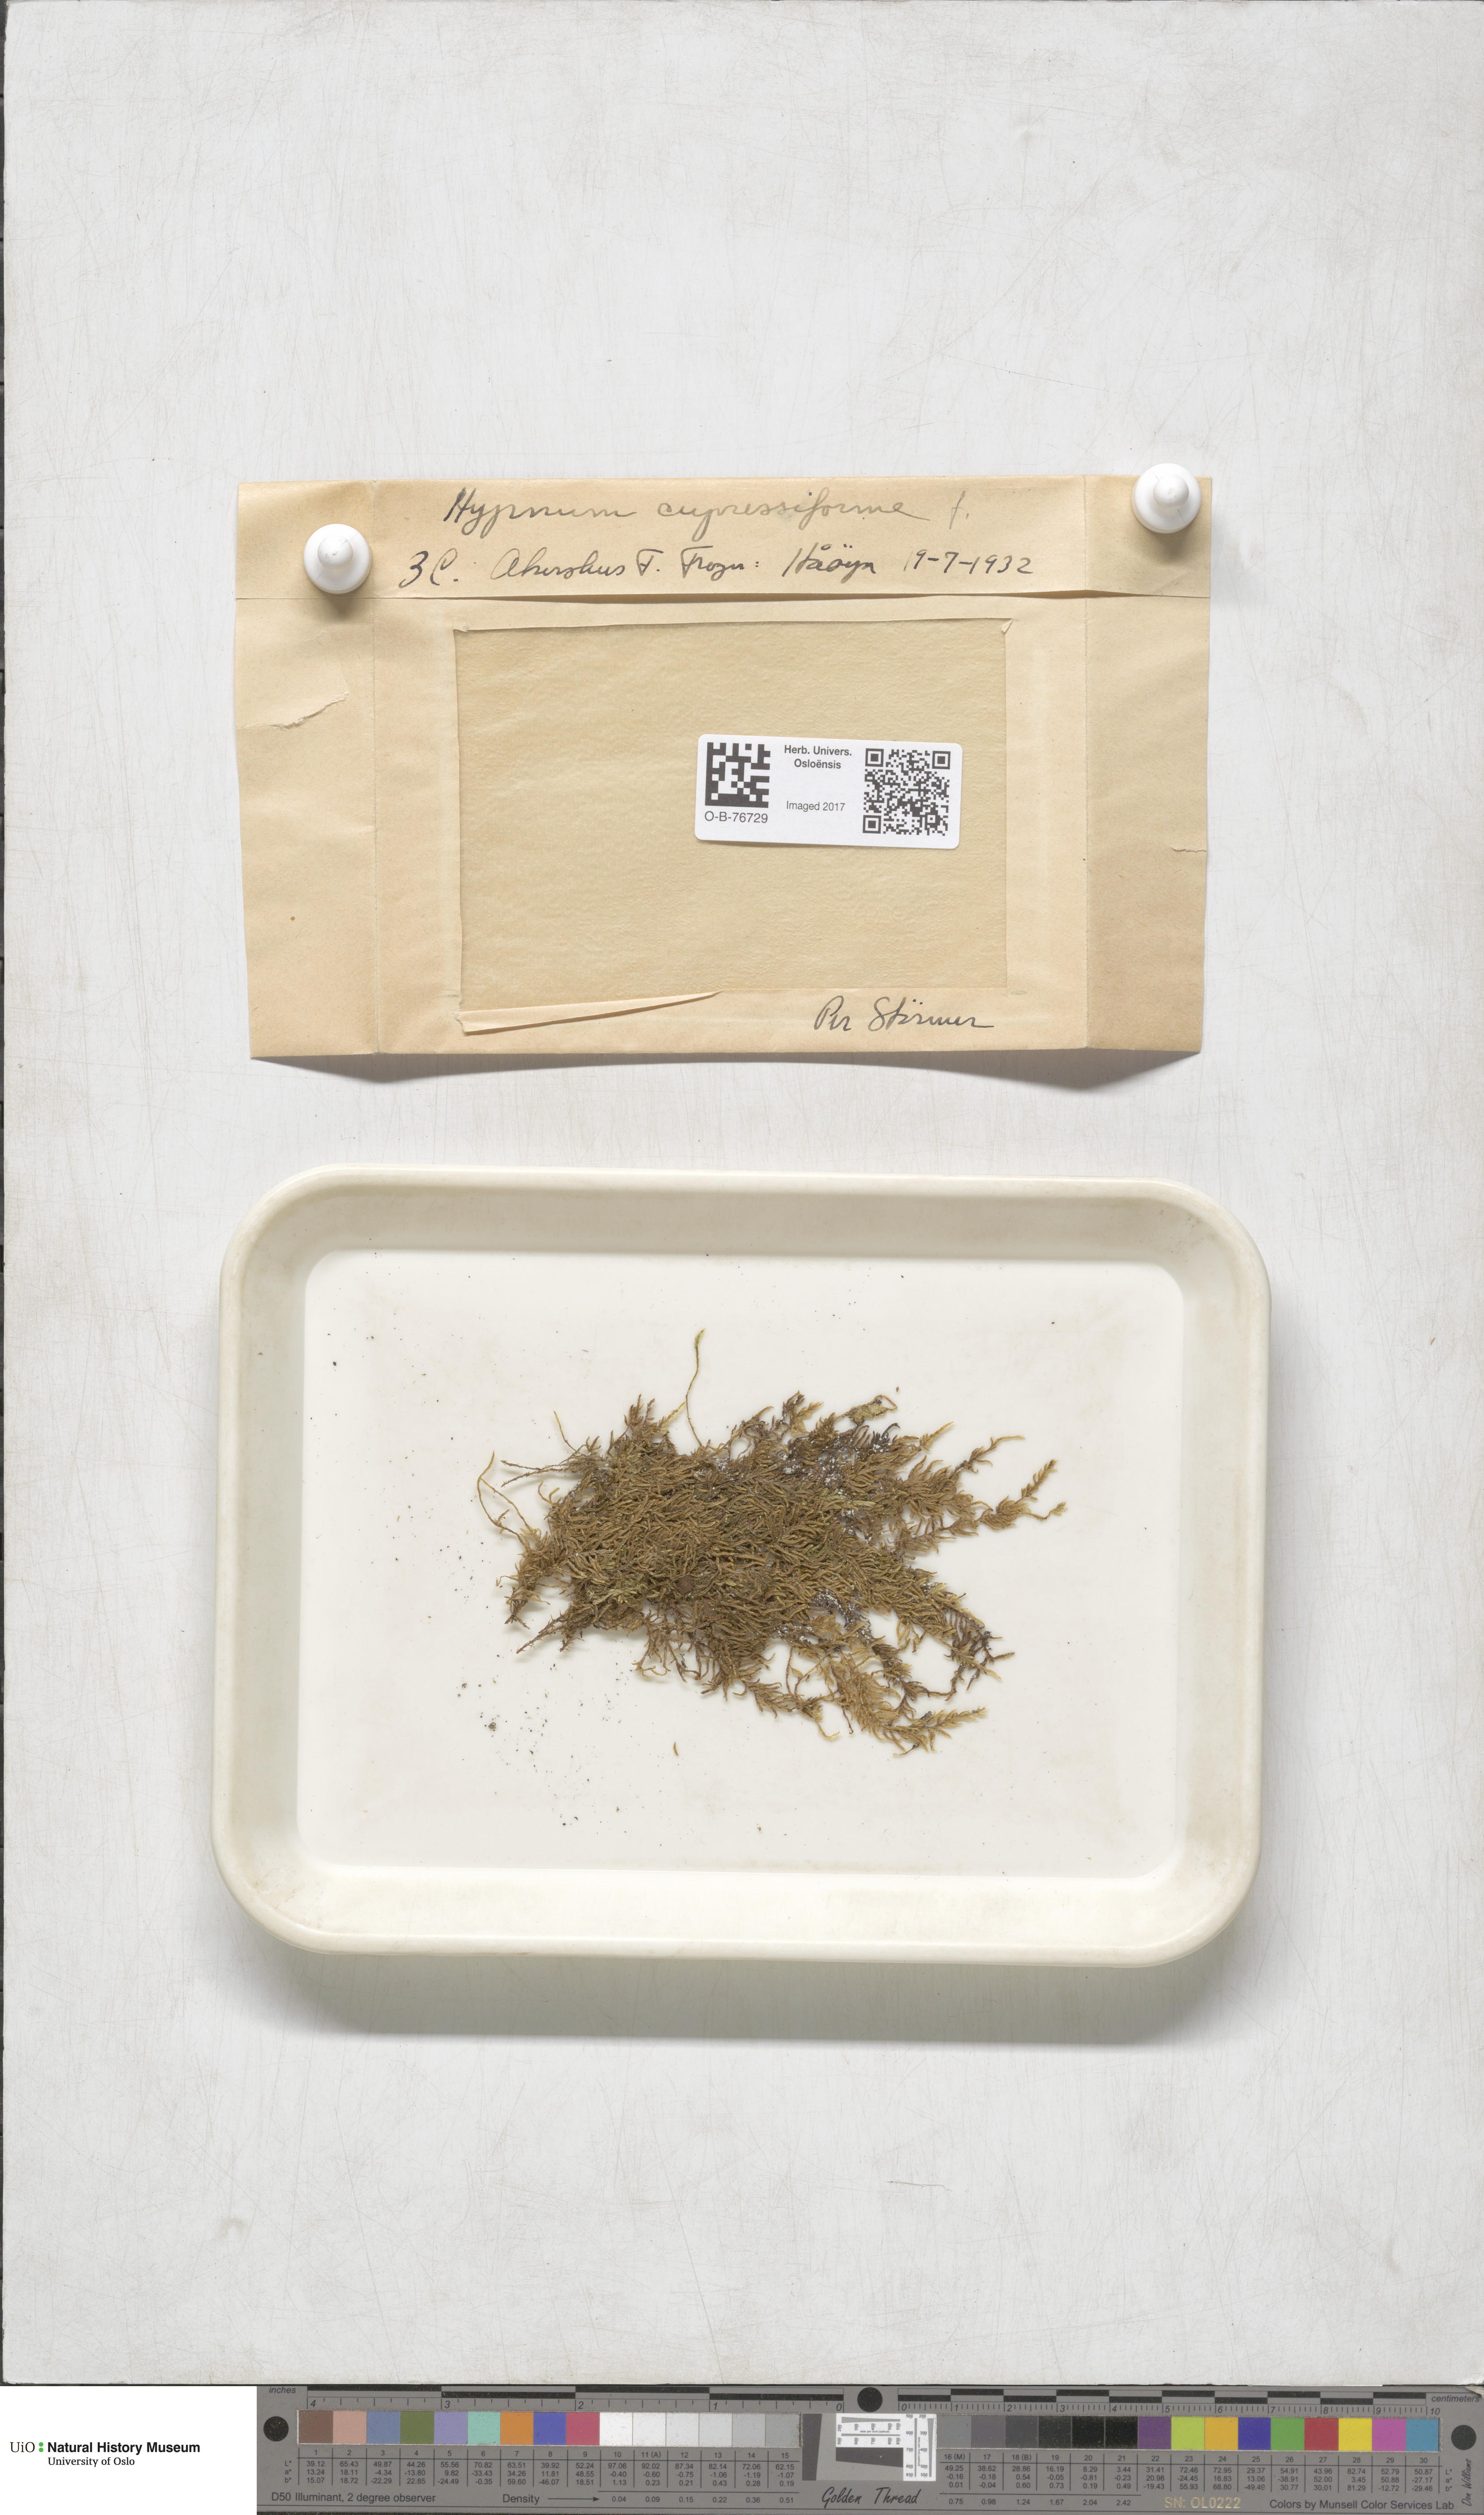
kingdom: Plantae
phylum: Bryophyta
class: Bryopsida
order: Hypnales
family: Hypnaceae
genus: Hypnum
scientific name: Hypnum cupressiforme
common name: Cypress-leaved plait-moss
